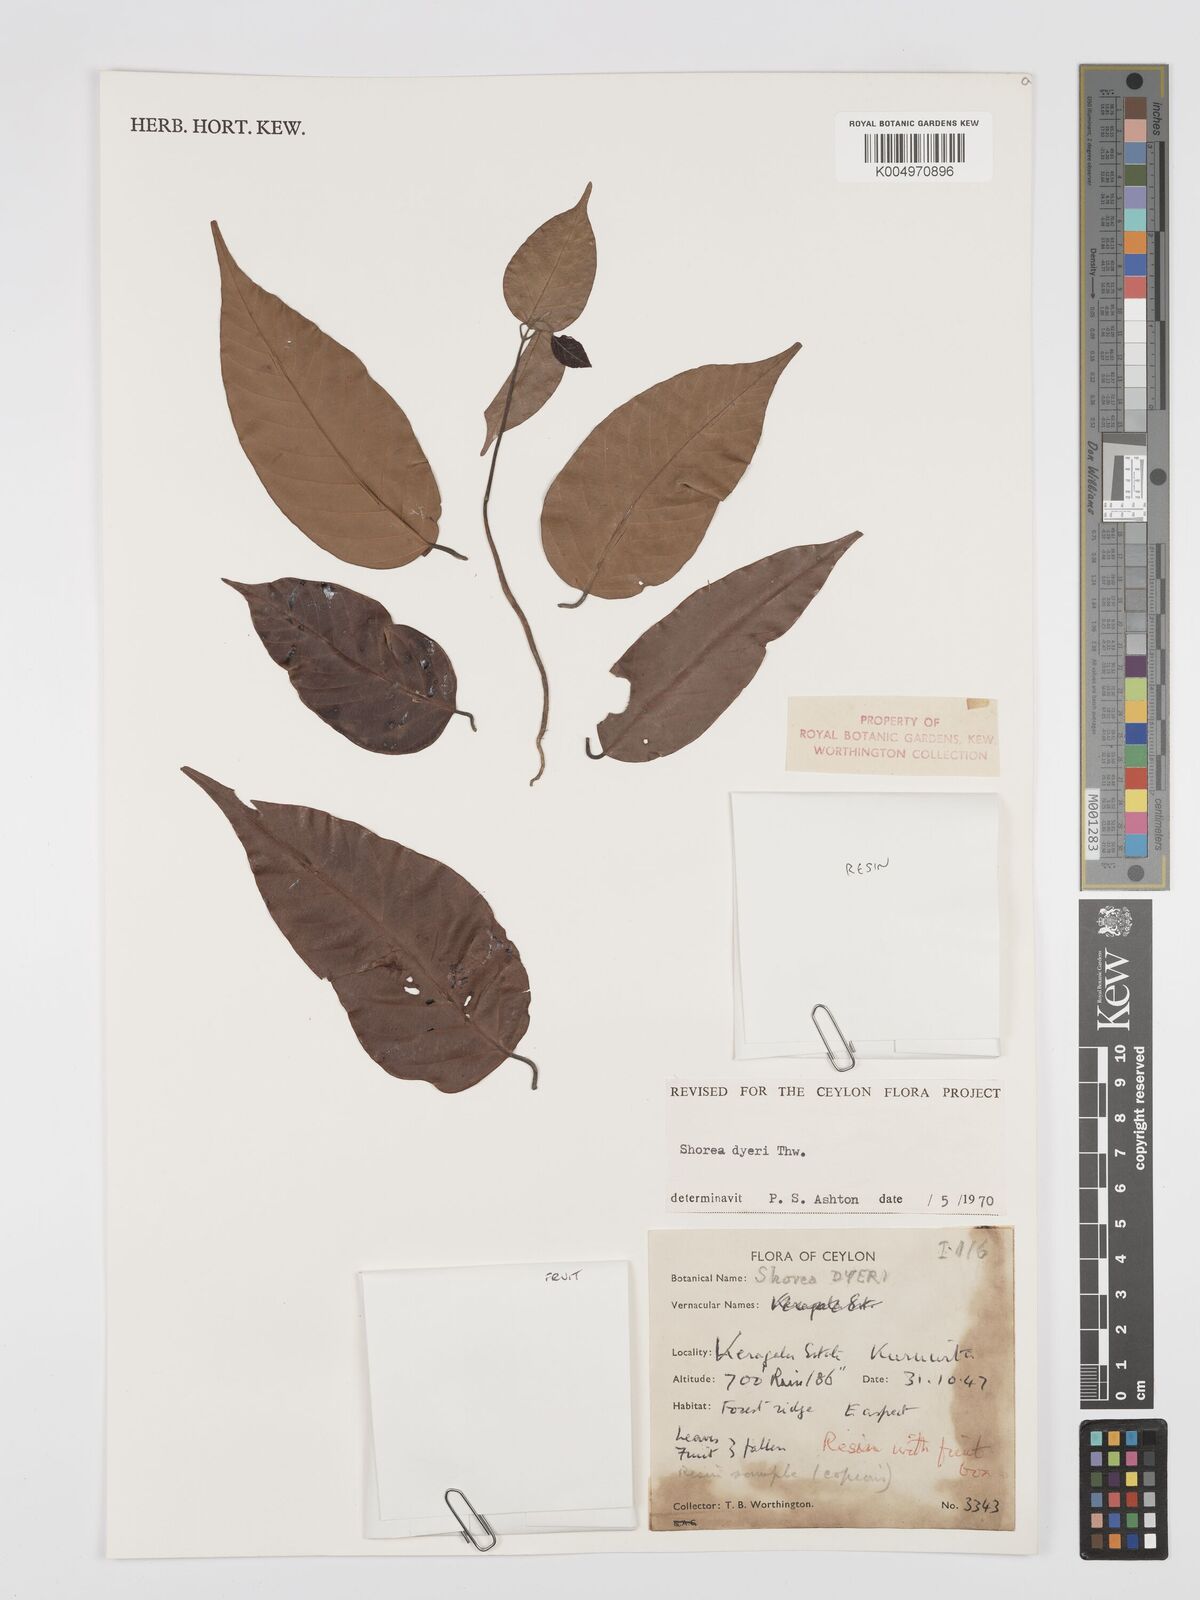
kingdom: Plantae
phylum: Tracheophyta
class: Magnoliopsida
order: Malvales
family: Dipterocarpaceae
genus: Shorea
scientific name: Shorea dyeri
